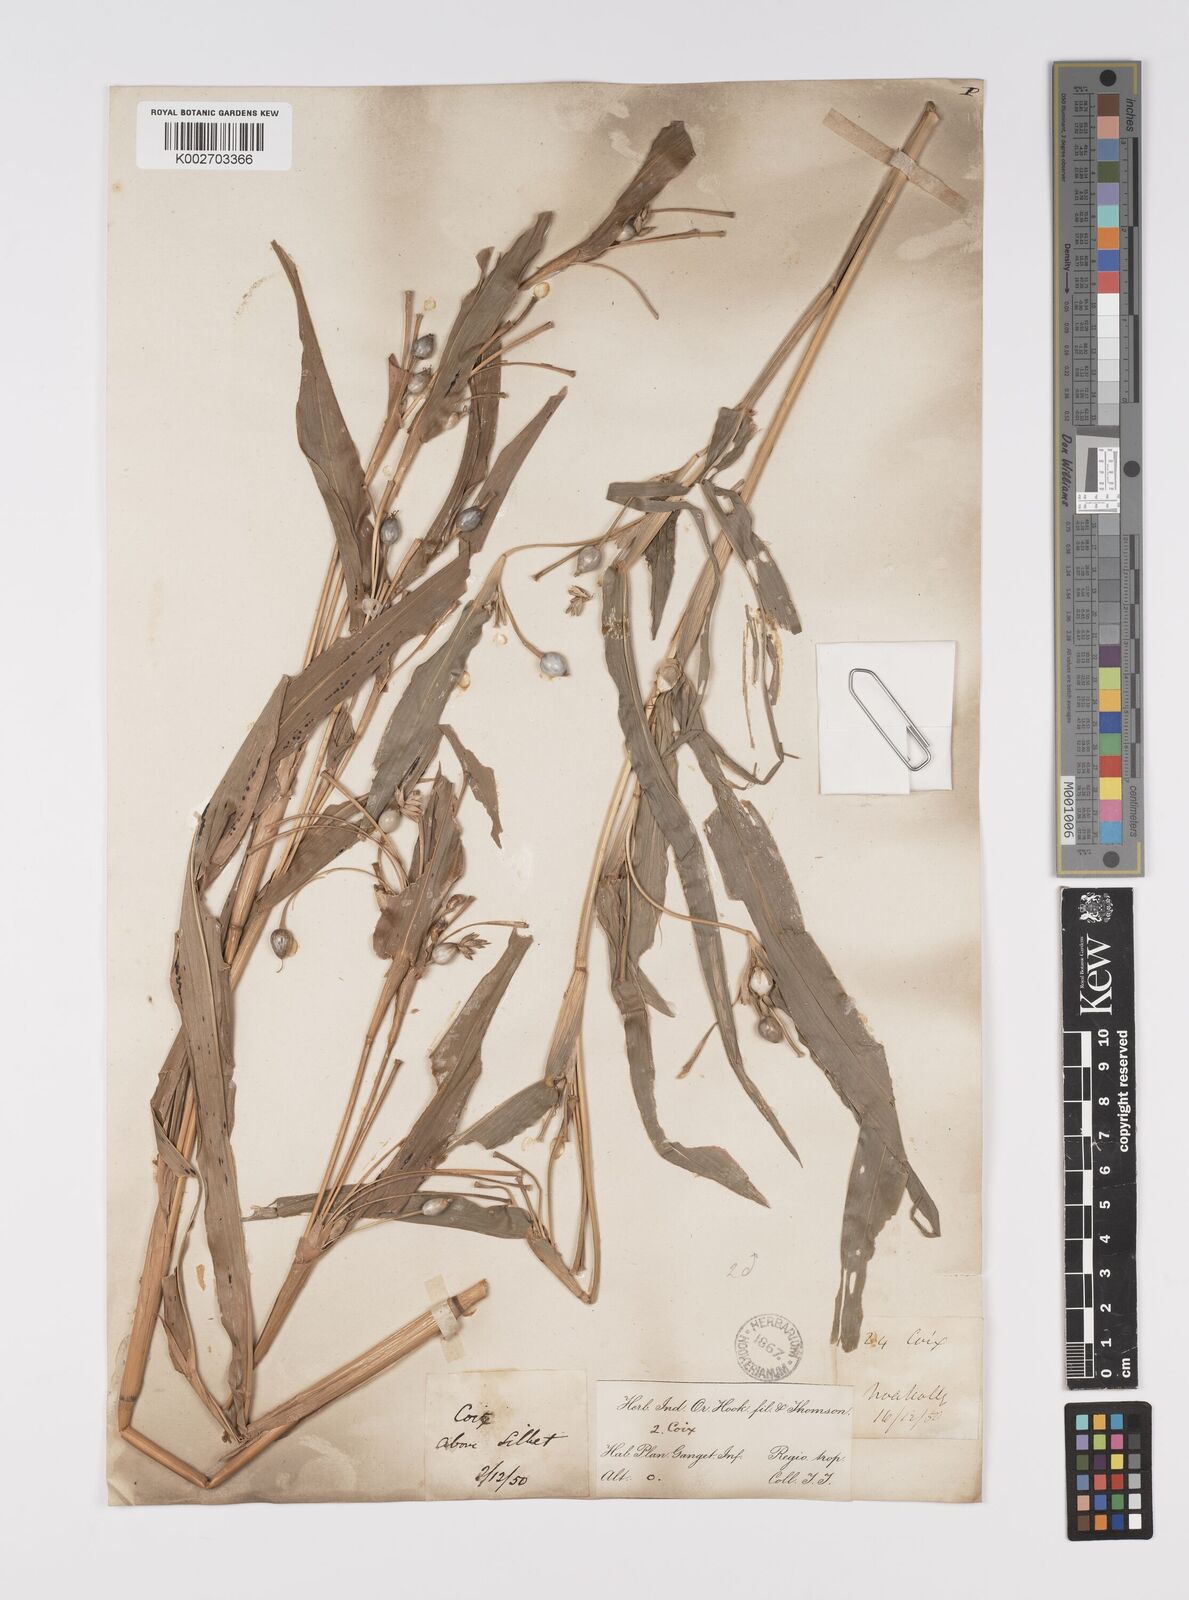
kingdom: Plantae
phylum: Tracheophyta
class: Liliopsida
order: Poales
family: Poaceae
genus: Coix
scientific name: Coix lacryma-jobi
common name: Job's tears
